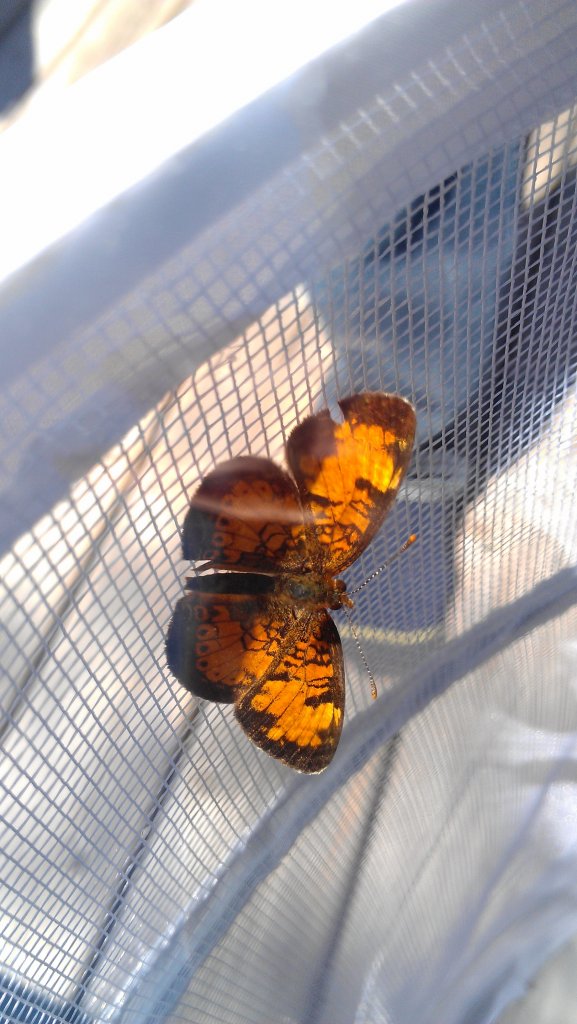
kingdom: Animalia
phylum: Arthropoda
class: Insecta
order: Lepidoptera
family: Nymphalidae
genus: Phyciodes
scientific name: Phyciodes tharos
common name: Northern Crescent
